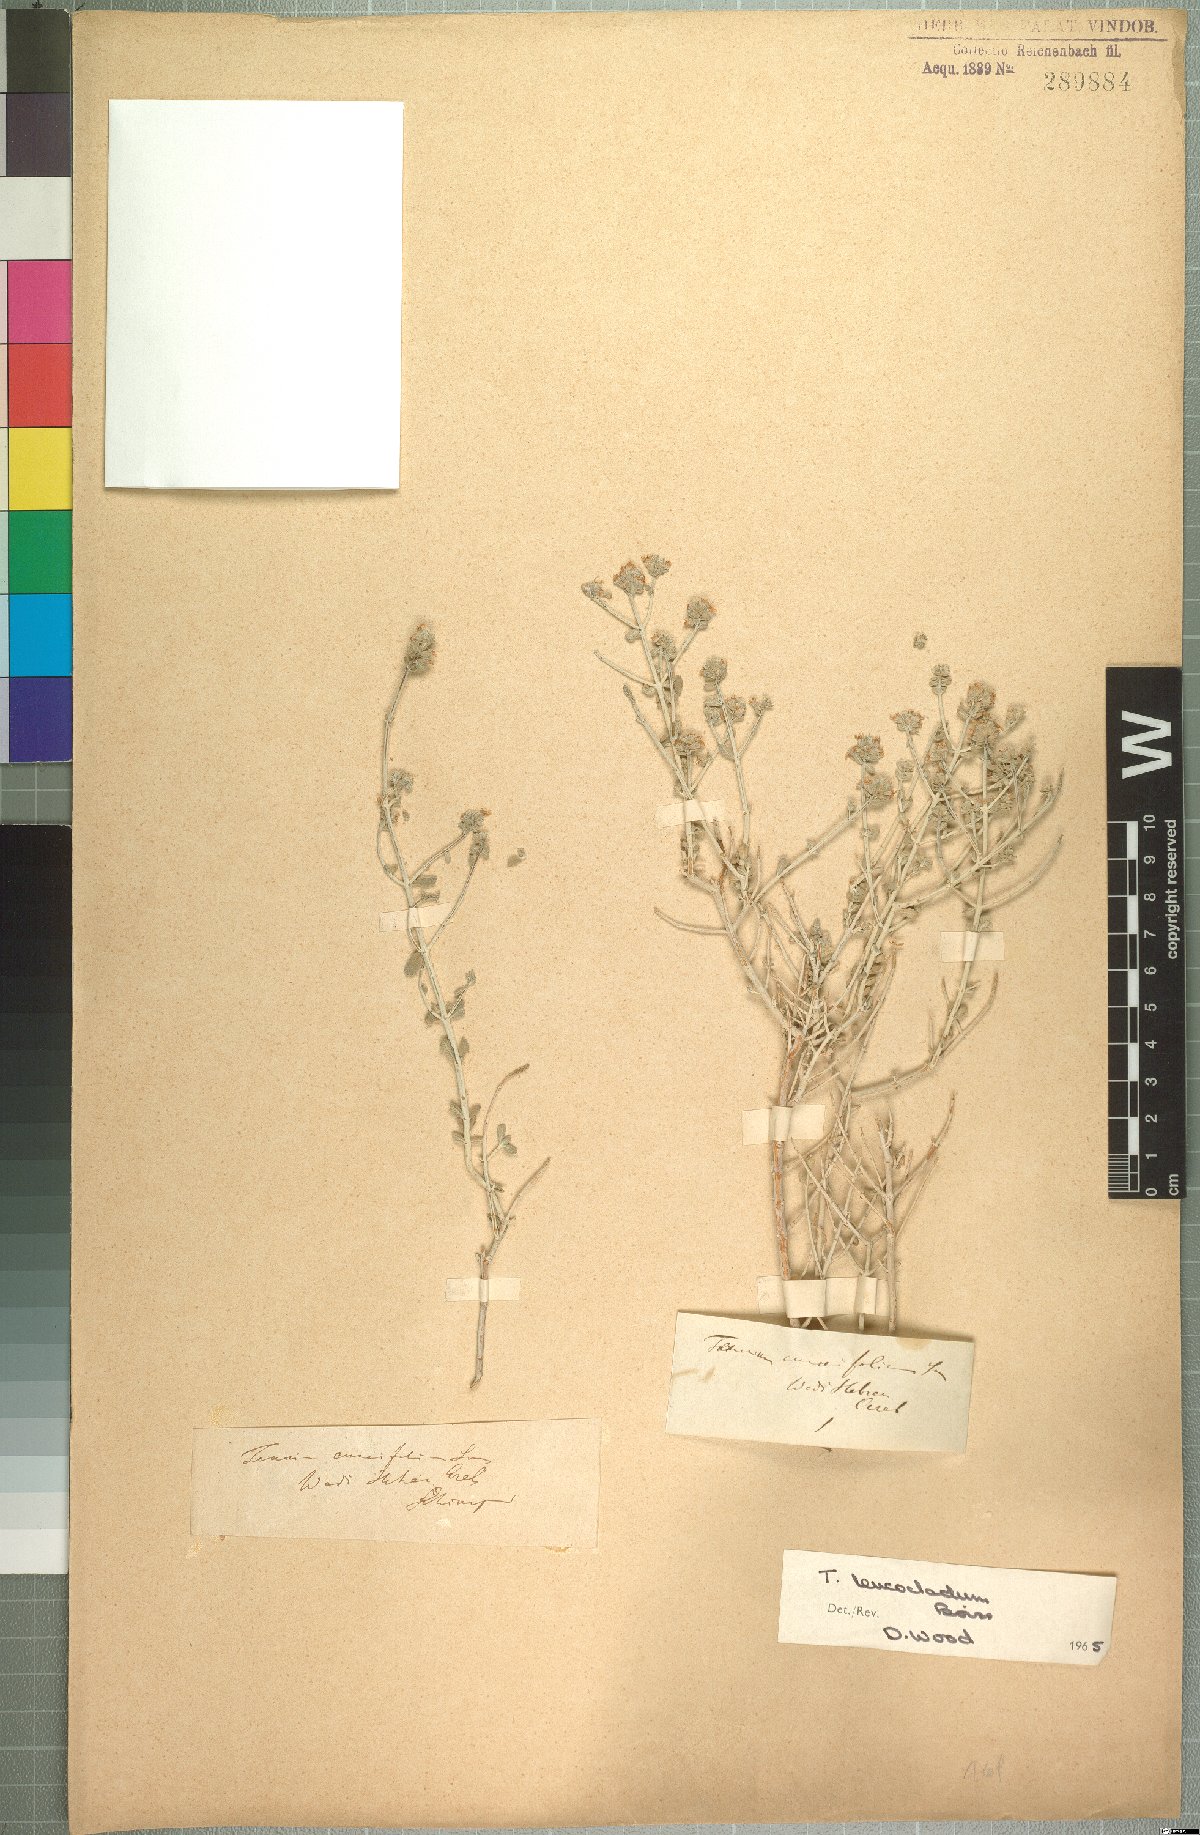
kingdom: Plantae
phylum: Tracheophyta
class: Magnoliopsida
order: Lamiales
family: Lamiaceae
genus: Teucrium
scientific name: Teucrium leucocladum
